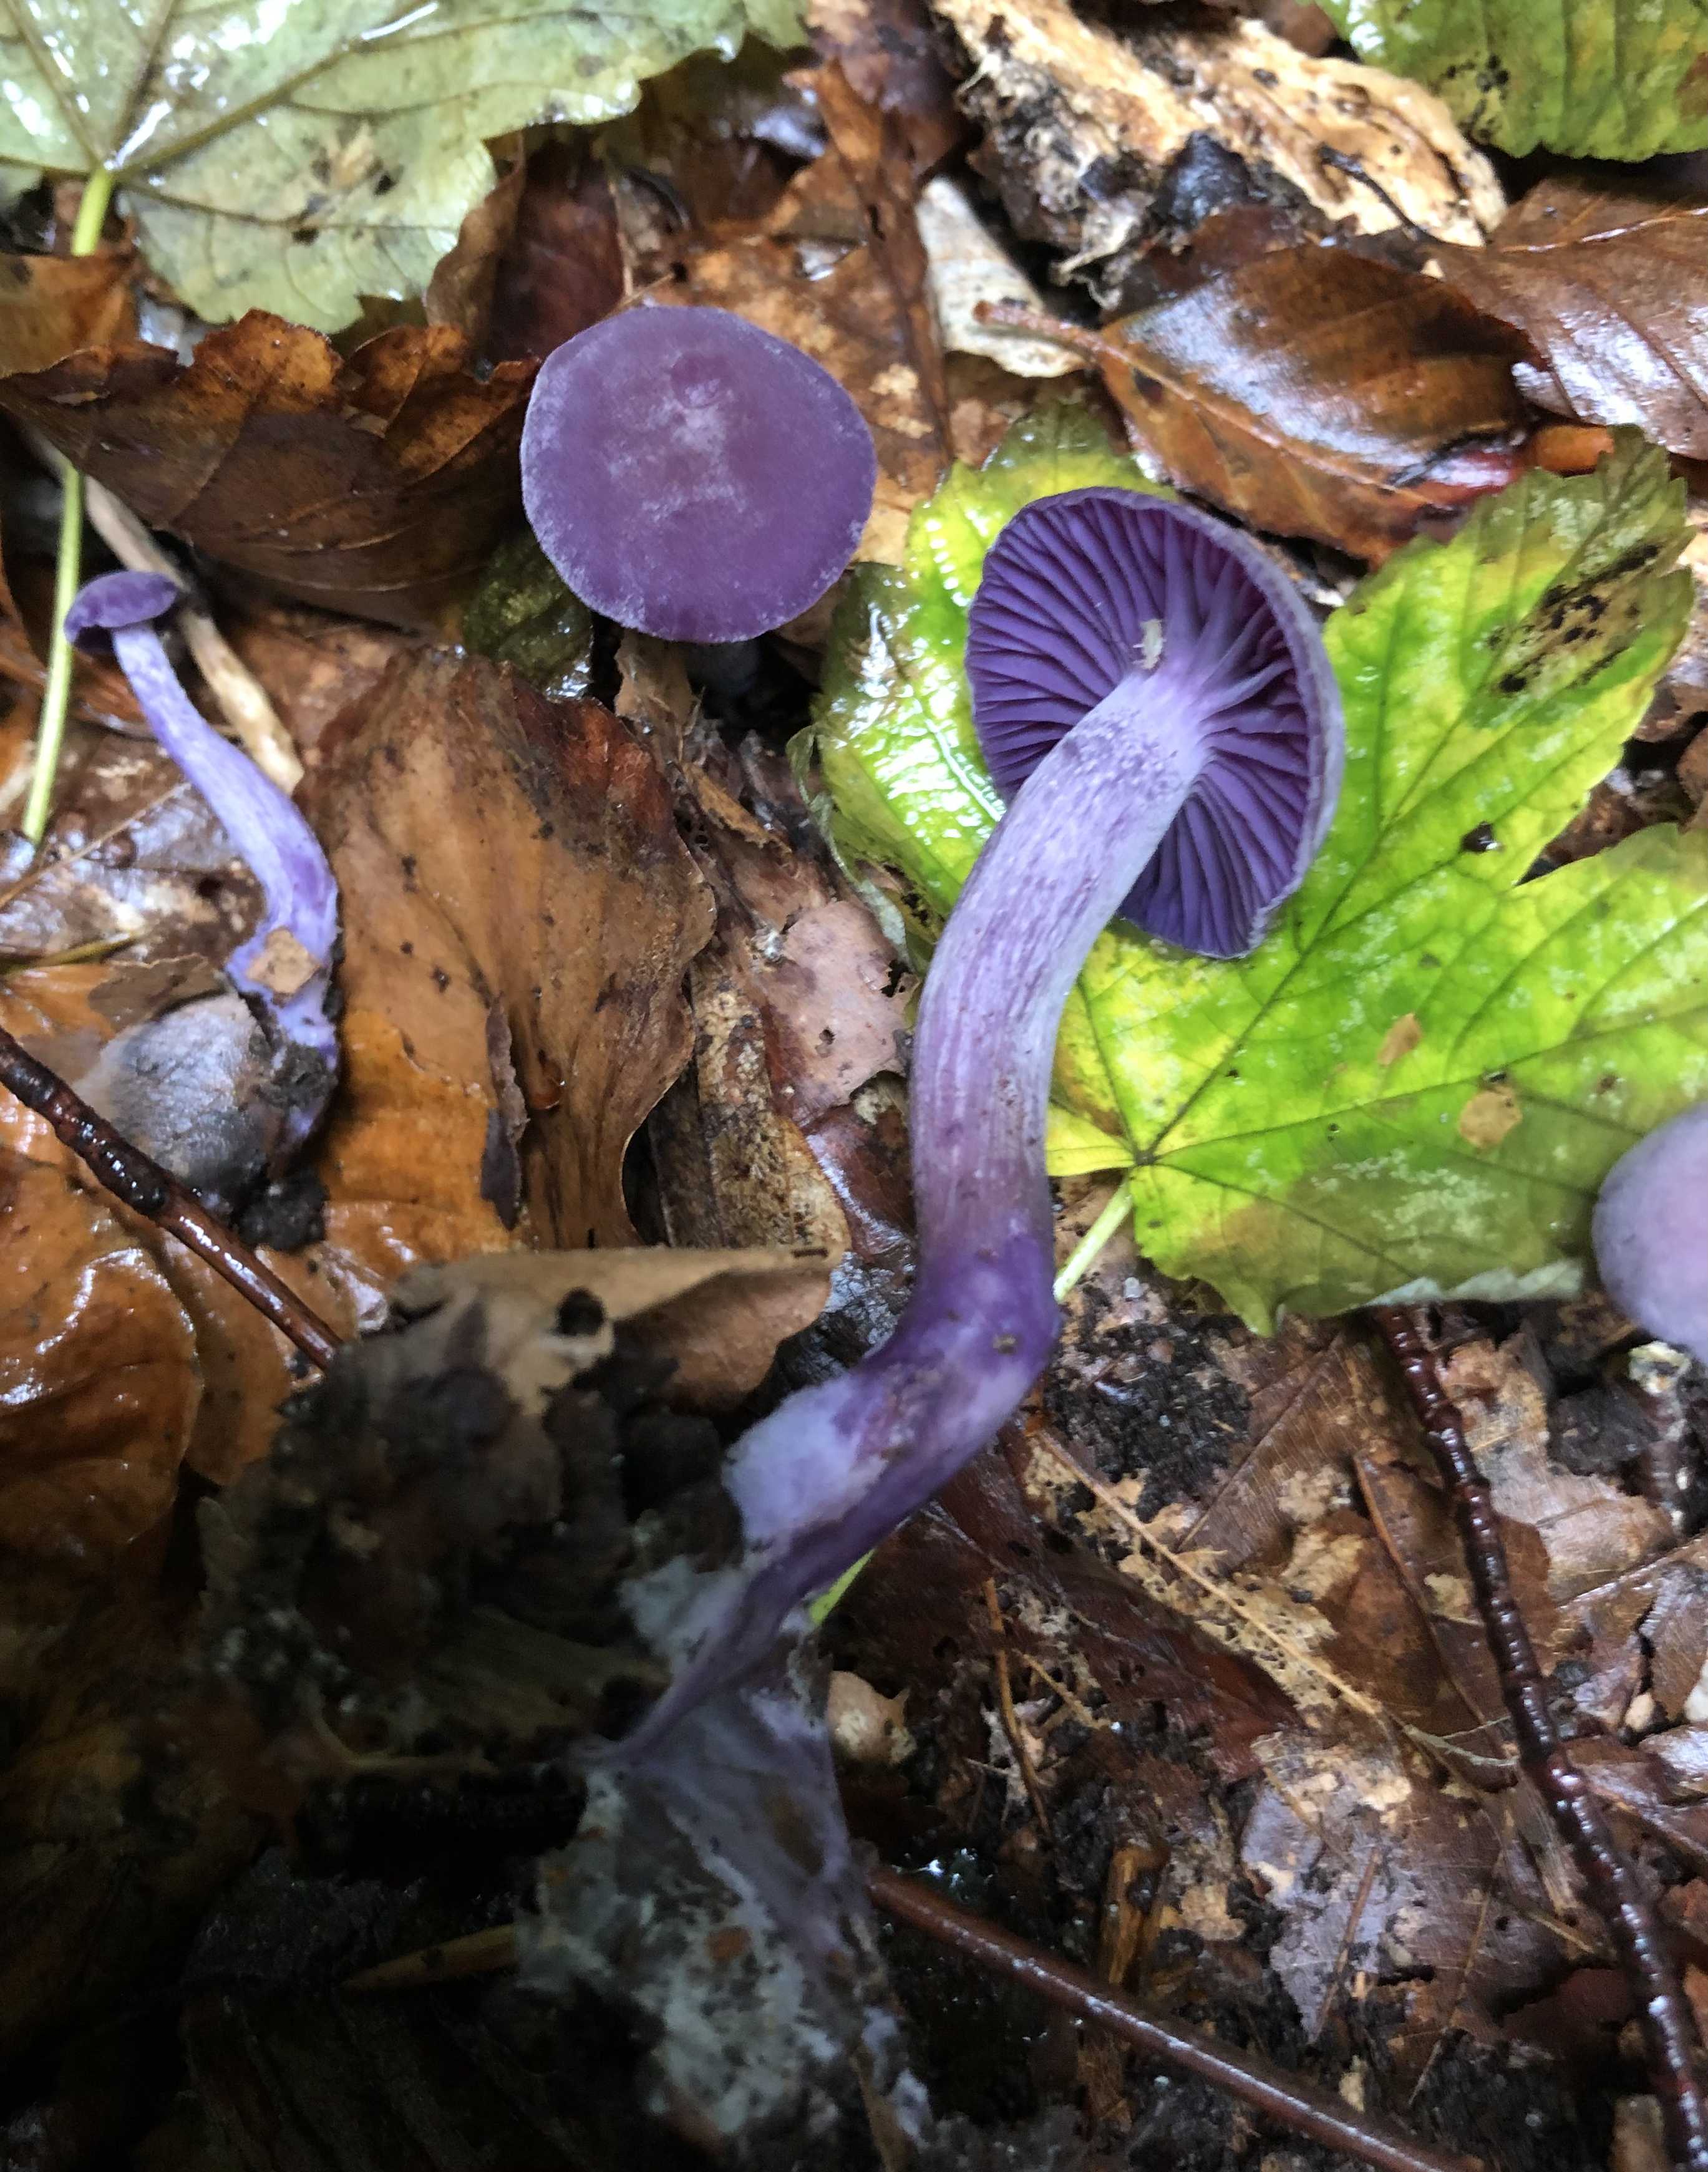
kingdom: Fungi
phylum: Basidiomycota
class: Agaricomycetes
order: Agaricales
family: Hydnangiaceae
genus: Laccaria
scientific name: Laccaria amethystina
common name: violet ametysthat
